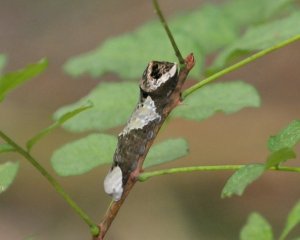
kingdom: Animalia
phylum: Arthropoda
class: Insecta
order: Lepidoptera
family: Papilionidae
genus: Papilio
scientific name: Papilio cresphontes
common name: Eastern Giant Swallowtail
